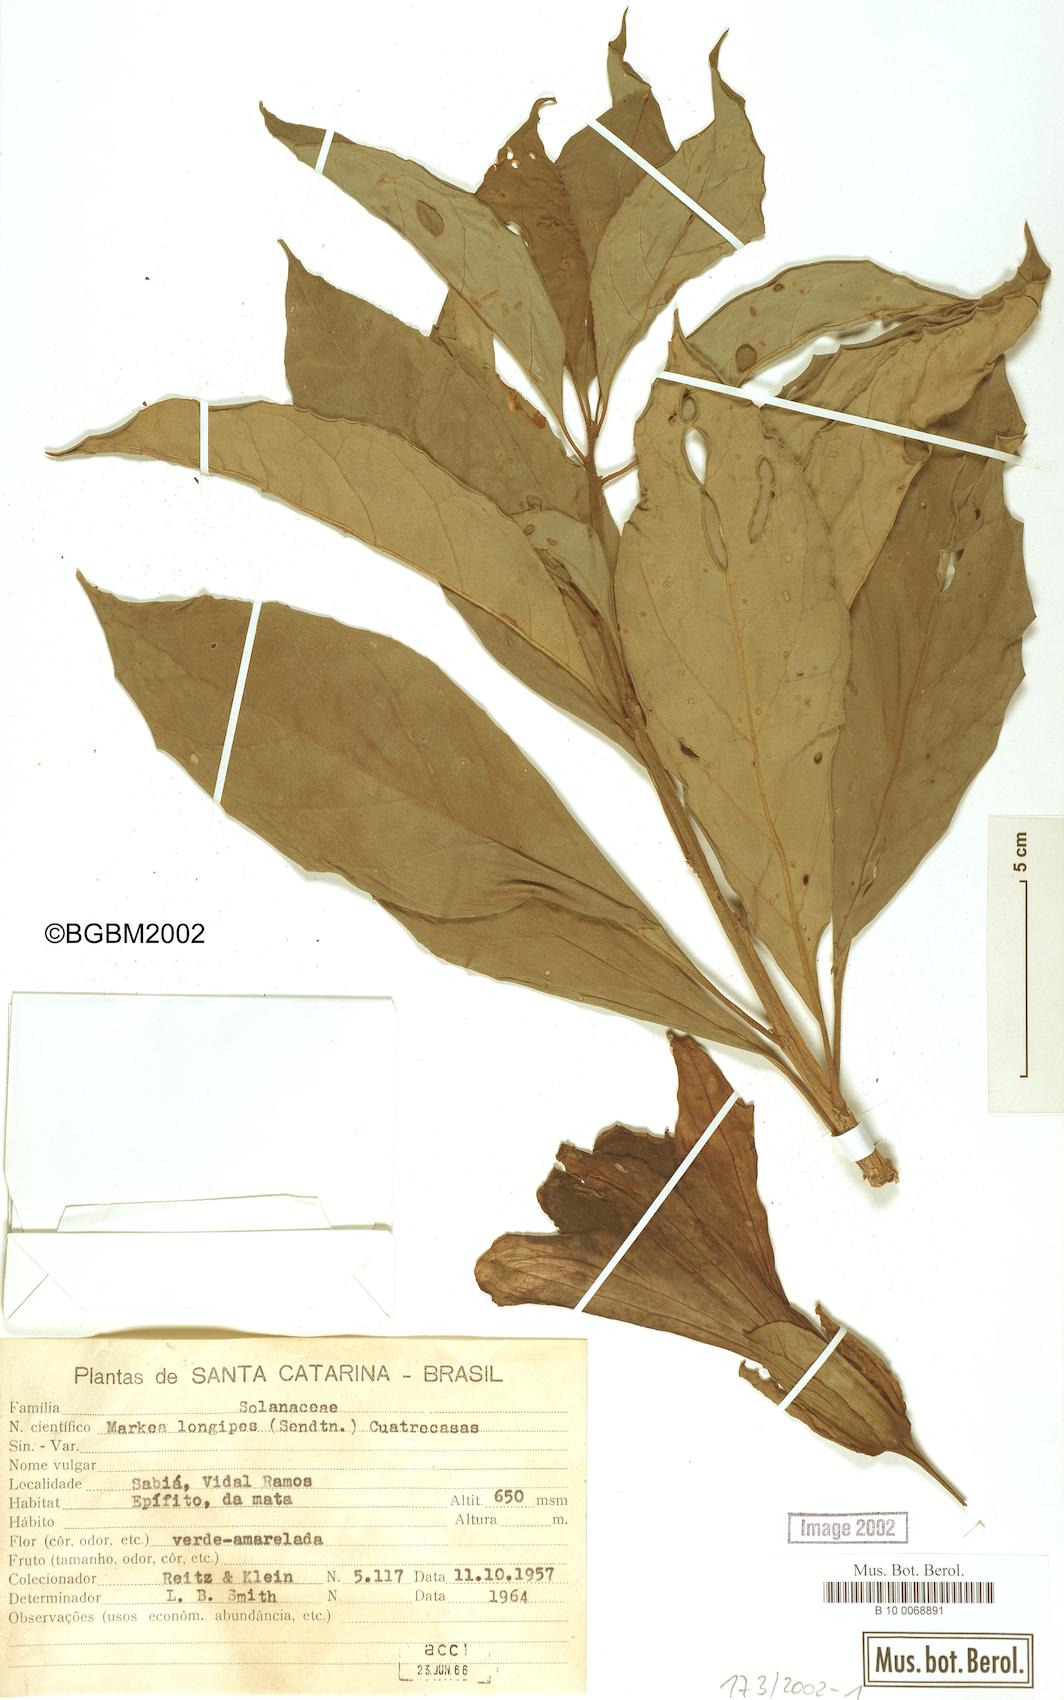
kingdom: Plantae
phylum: Tracheophyta
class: Magnoliopsida
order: Solanales
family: Solanaceae
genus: Dyssochroma
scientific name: Dyssochroma longipes
